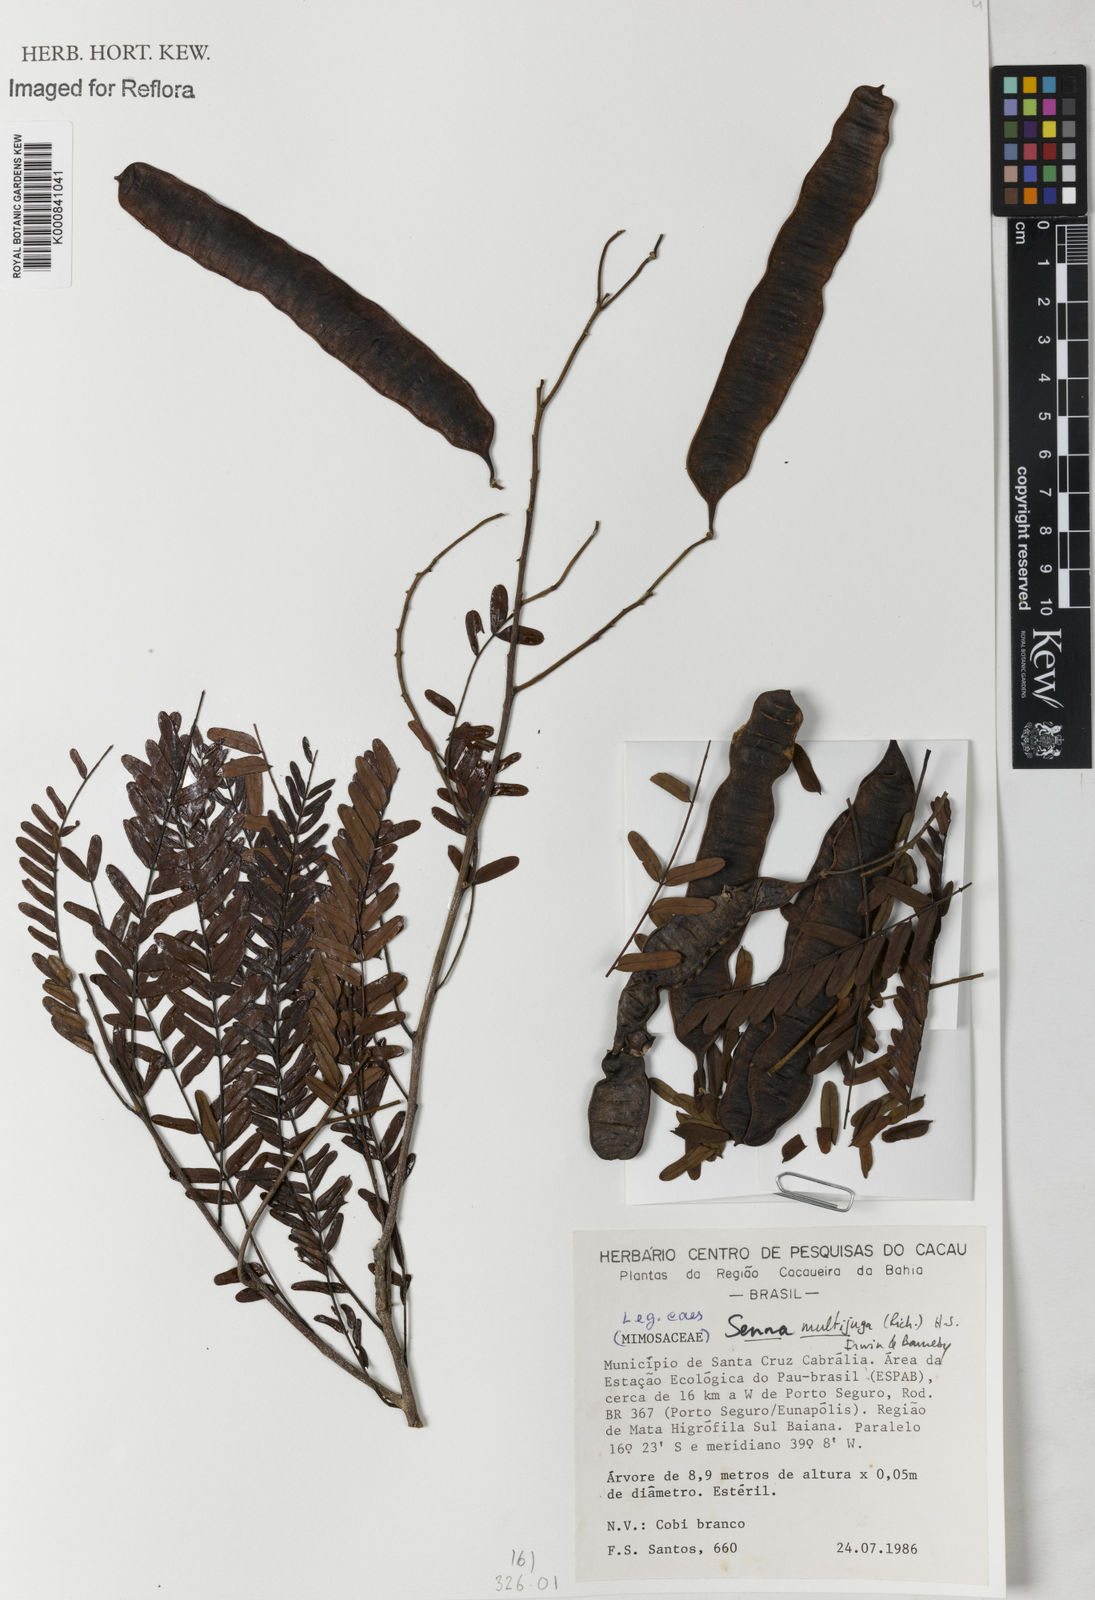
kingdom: Plantae
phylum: Tracheophyta
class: Magnoliopsida
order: Fabales
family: Fabaceae
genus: Senna
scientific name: Senna multijuga
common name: False sicklepod
